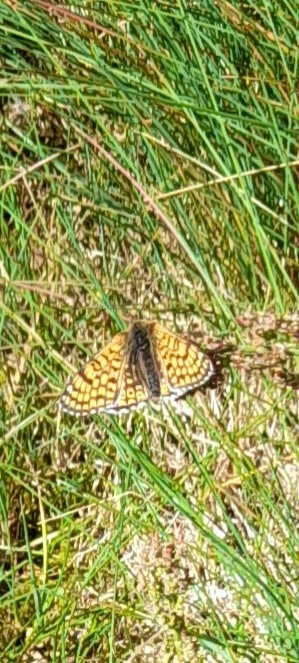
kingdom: Animalia
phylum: Arthropoda
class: Insecta
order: Lepidoptera
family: Nymphalidae
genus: Melitaea
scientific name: Melitaea cinxia
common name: Okkergul pletvinge
